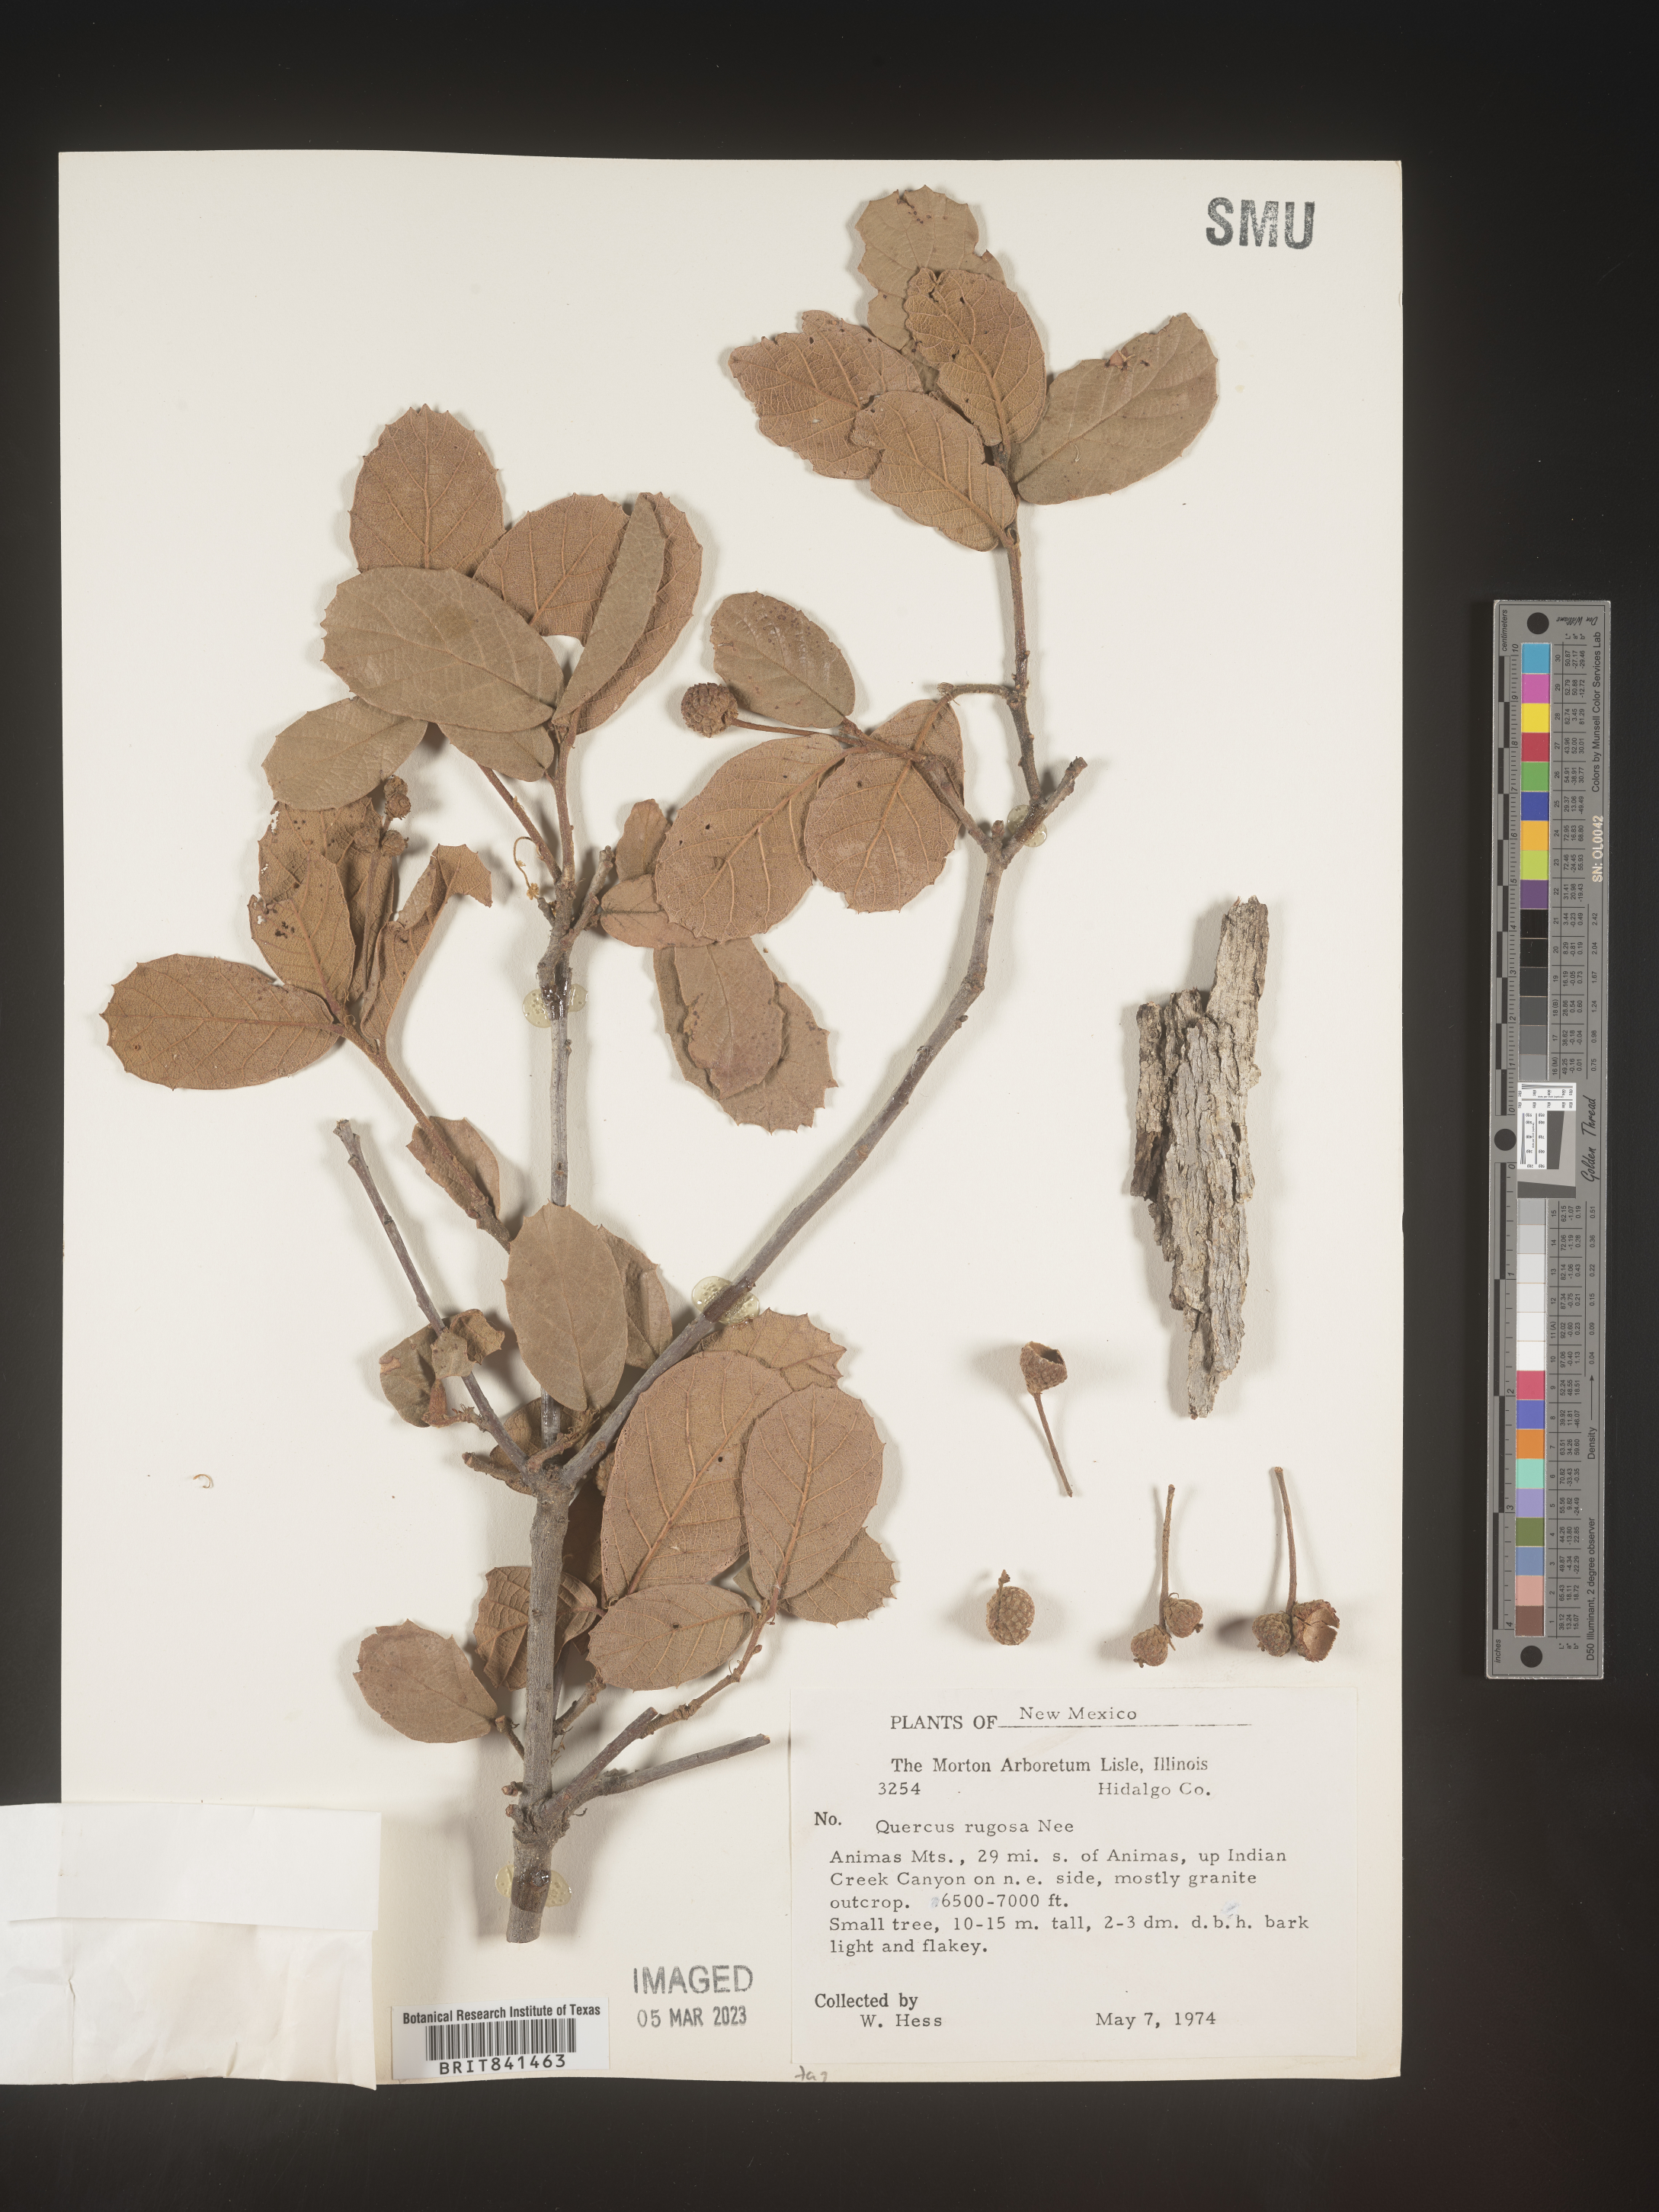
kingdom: Plantae
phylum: Tracheophyta
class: Magnoliopsida
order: Fagales
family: Fagaceae
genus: Quercus
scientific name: Quercus rugosa
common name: Netleaf oak
